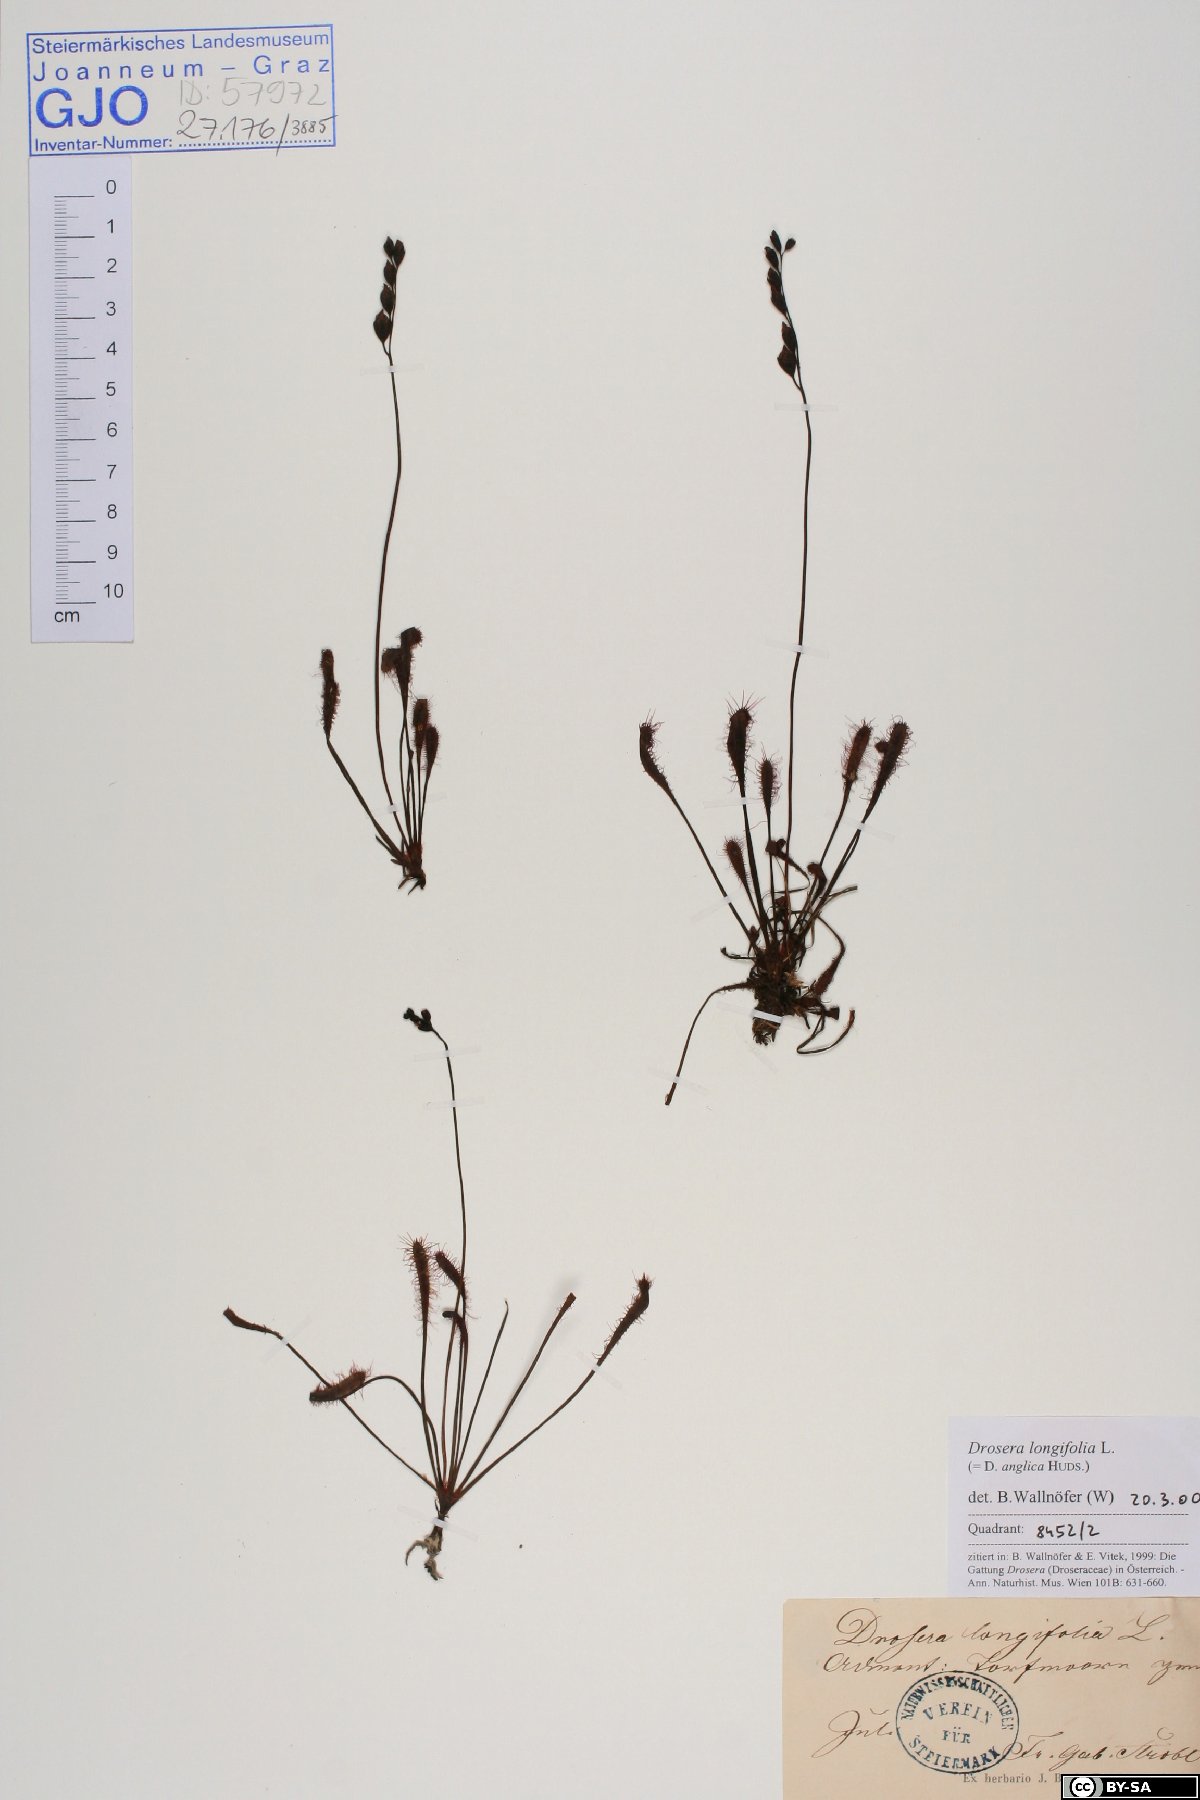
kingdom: Plantae
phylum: Tracheophyta
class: Magnoliopsida
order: Caryophyllales
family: Droseraceae
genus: Drosera
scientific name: Drosera anglica
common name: Great sundew
